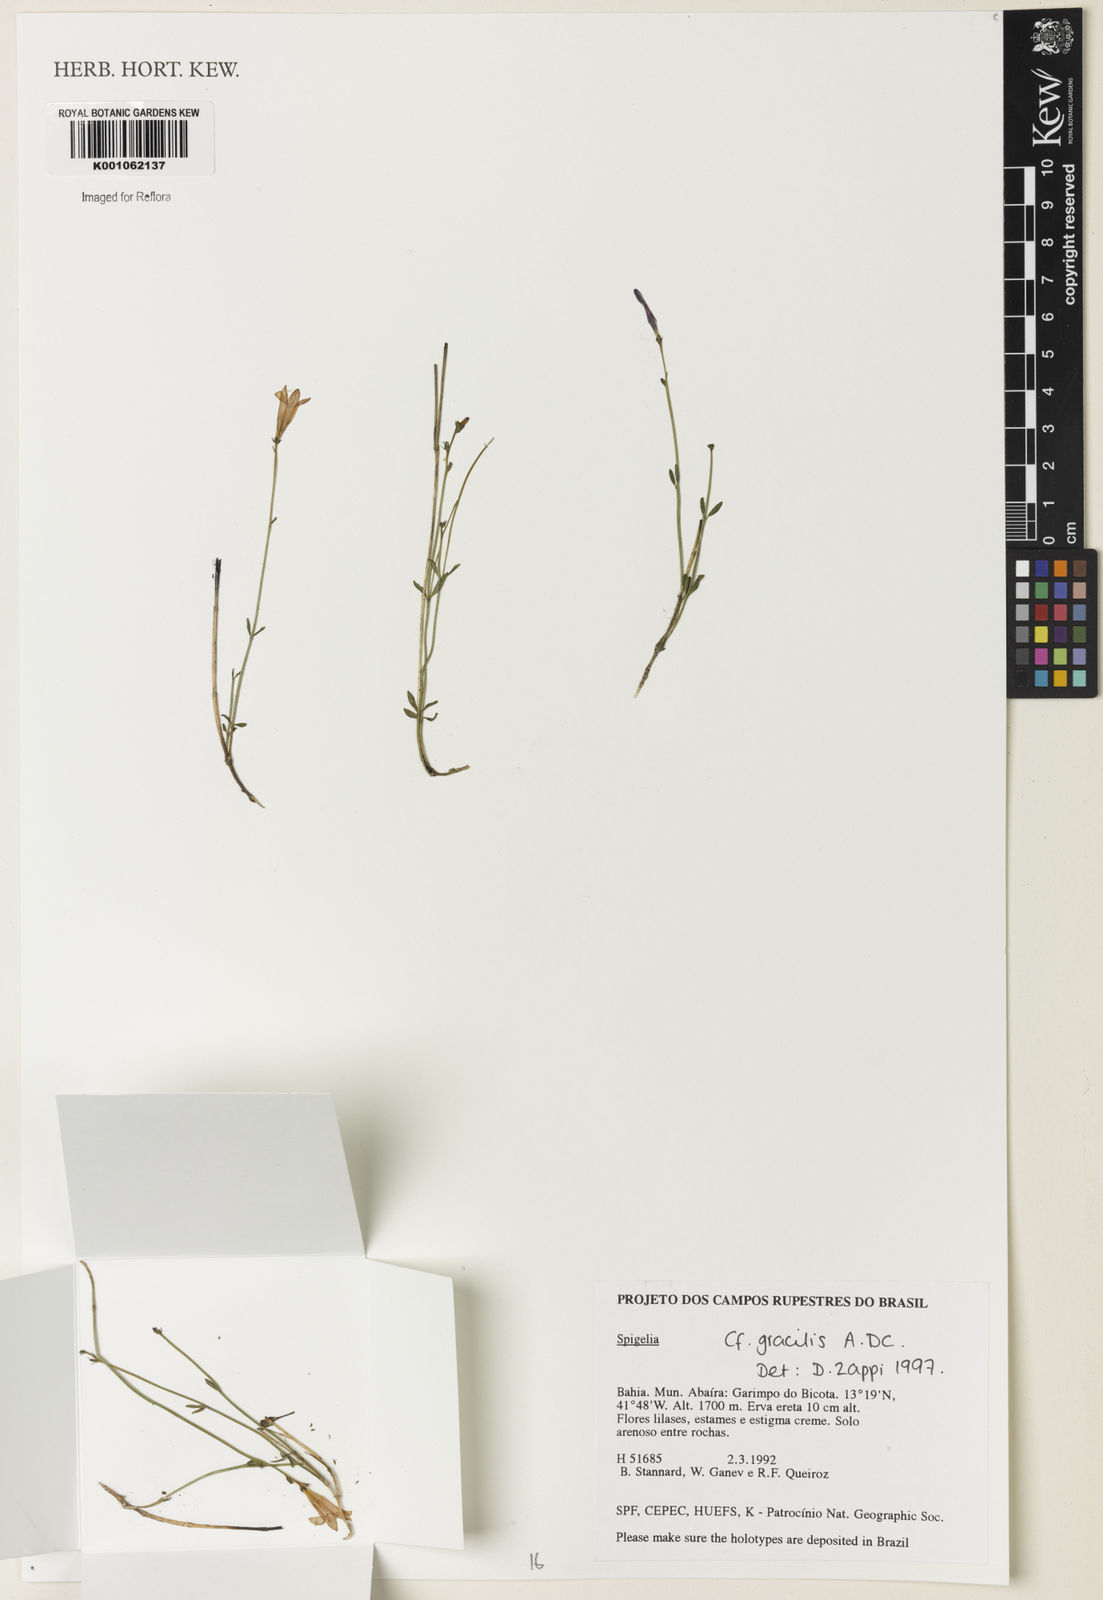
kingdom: Plantae
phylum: Tracheophyta
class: Magnoliopsida
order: Gentianales
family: Loganiaceae
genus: Spigelia
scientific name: Spigelia
